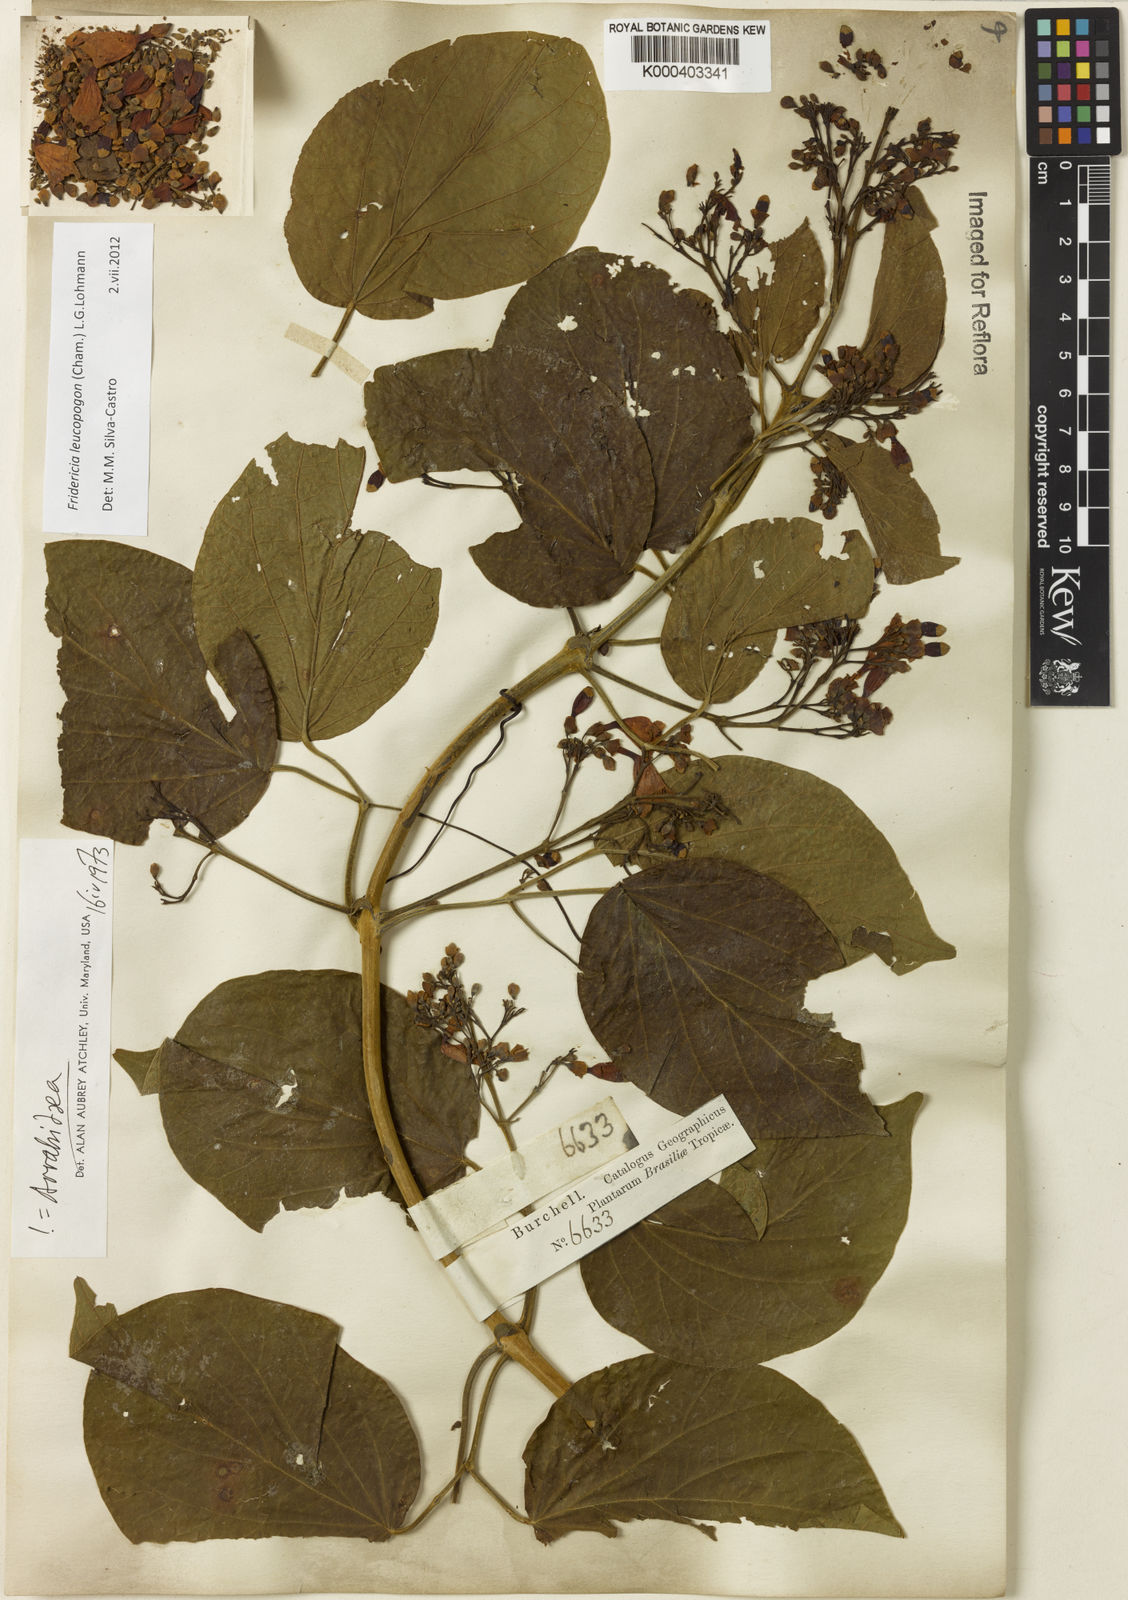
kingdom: Plantae
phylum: Tracheophyta
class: Magnoliopsida
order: Lamiales
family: Bignoniaceae
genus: Fridericia
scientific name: Fridericia leucopogon
